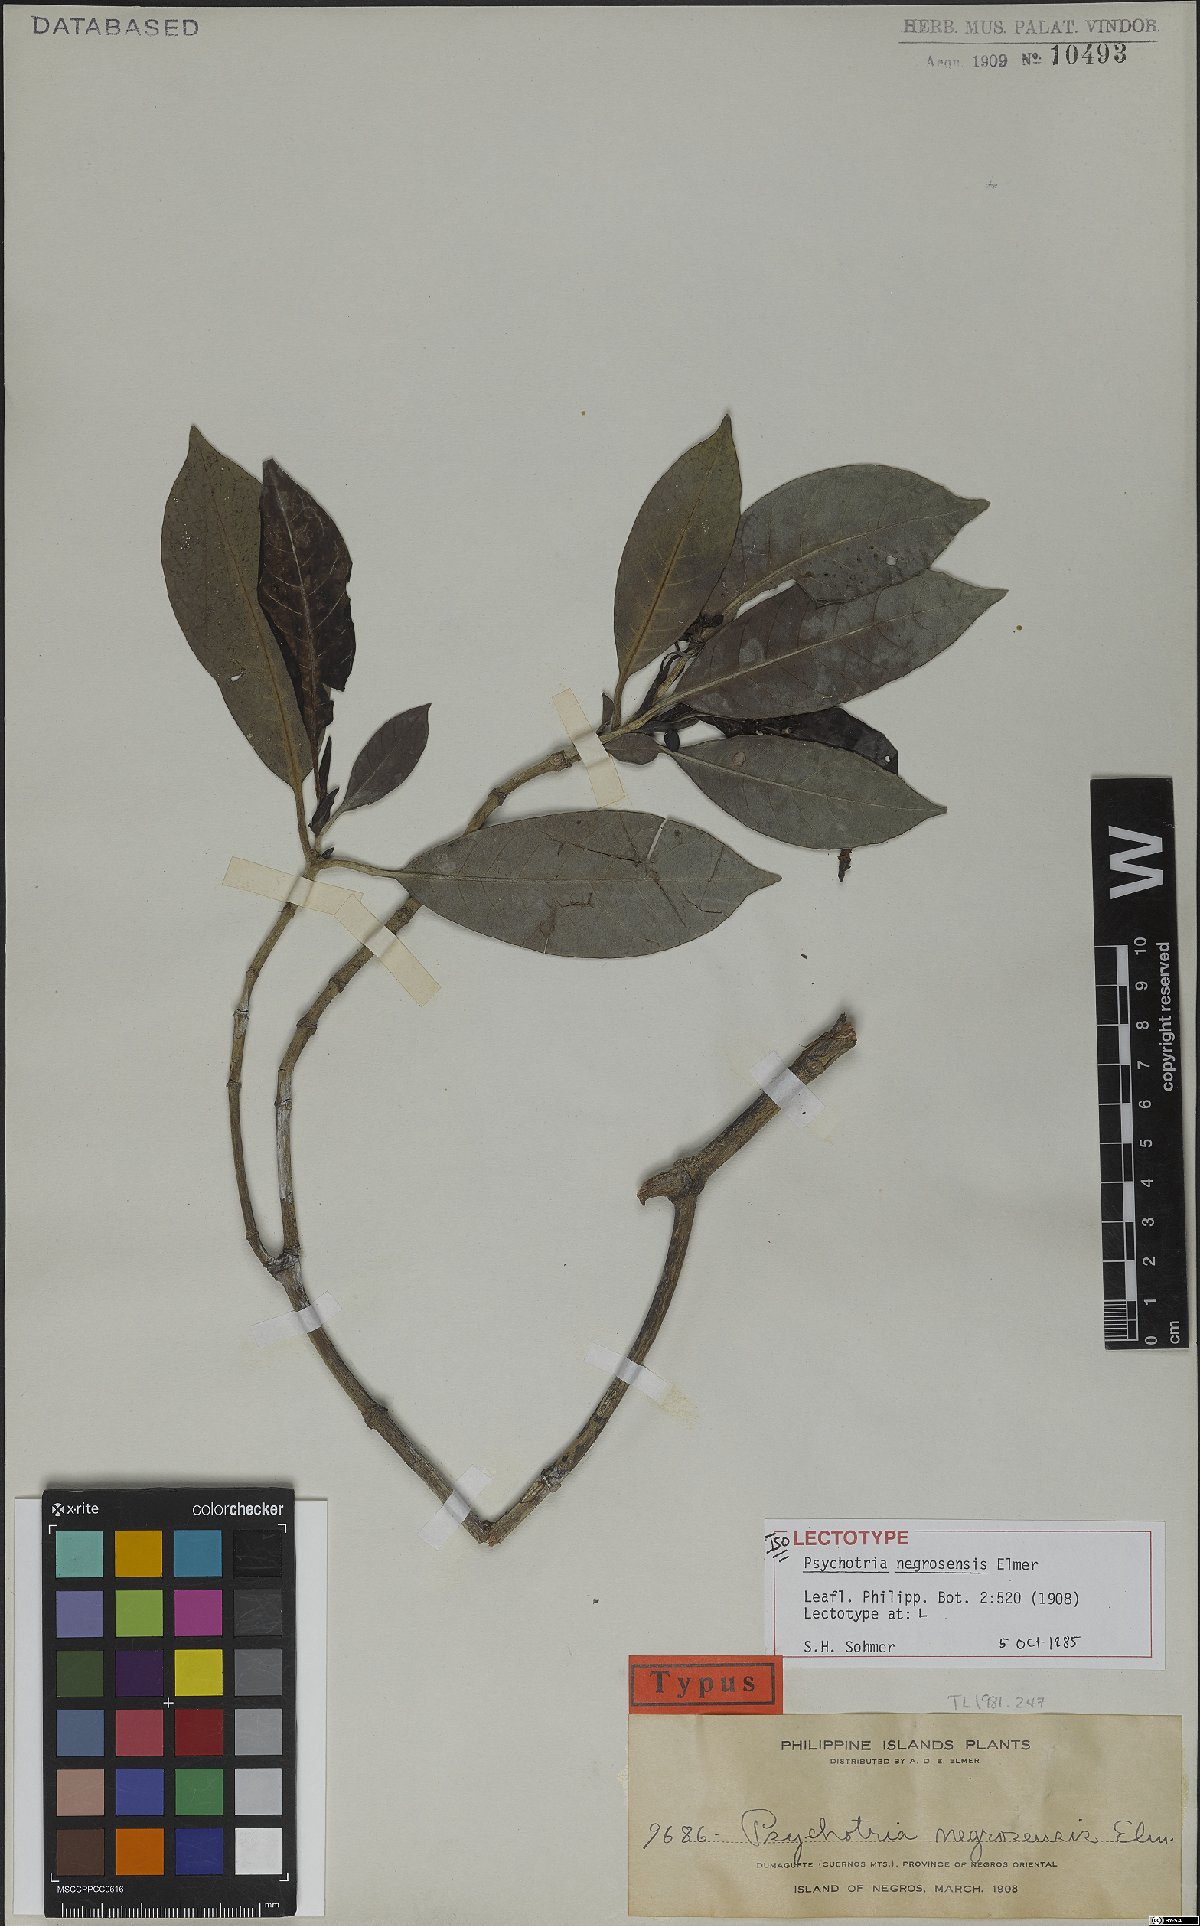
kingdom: Plantae
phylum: Tracheophyta
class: Magnoliopsida
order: Gentianales
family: Rubiaceae
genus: Psychotria
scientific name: Psychotria negrosensis
